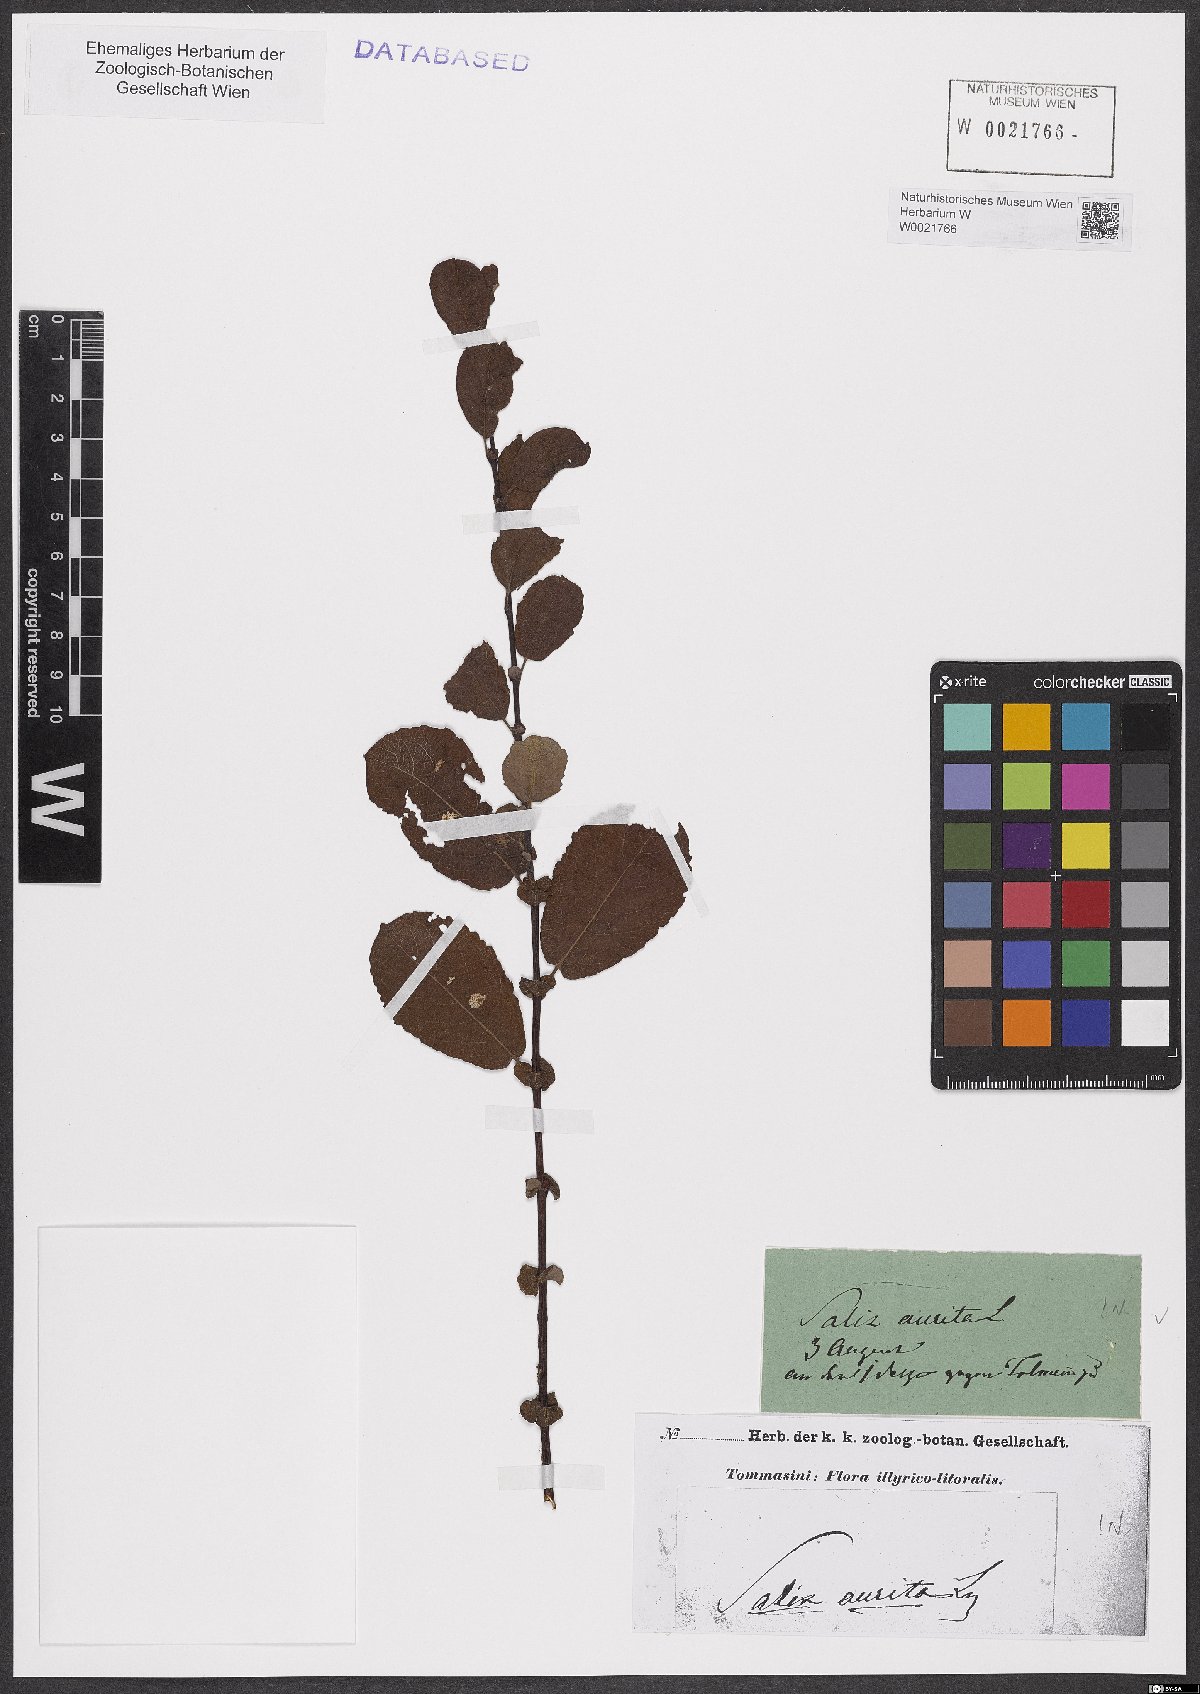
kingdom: Plantae
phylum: Tracheophyta
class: Magnoliopsida
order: Malpighiales
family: Salicaceae
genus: Salix
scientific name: Salix aurita
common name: Eared willow
